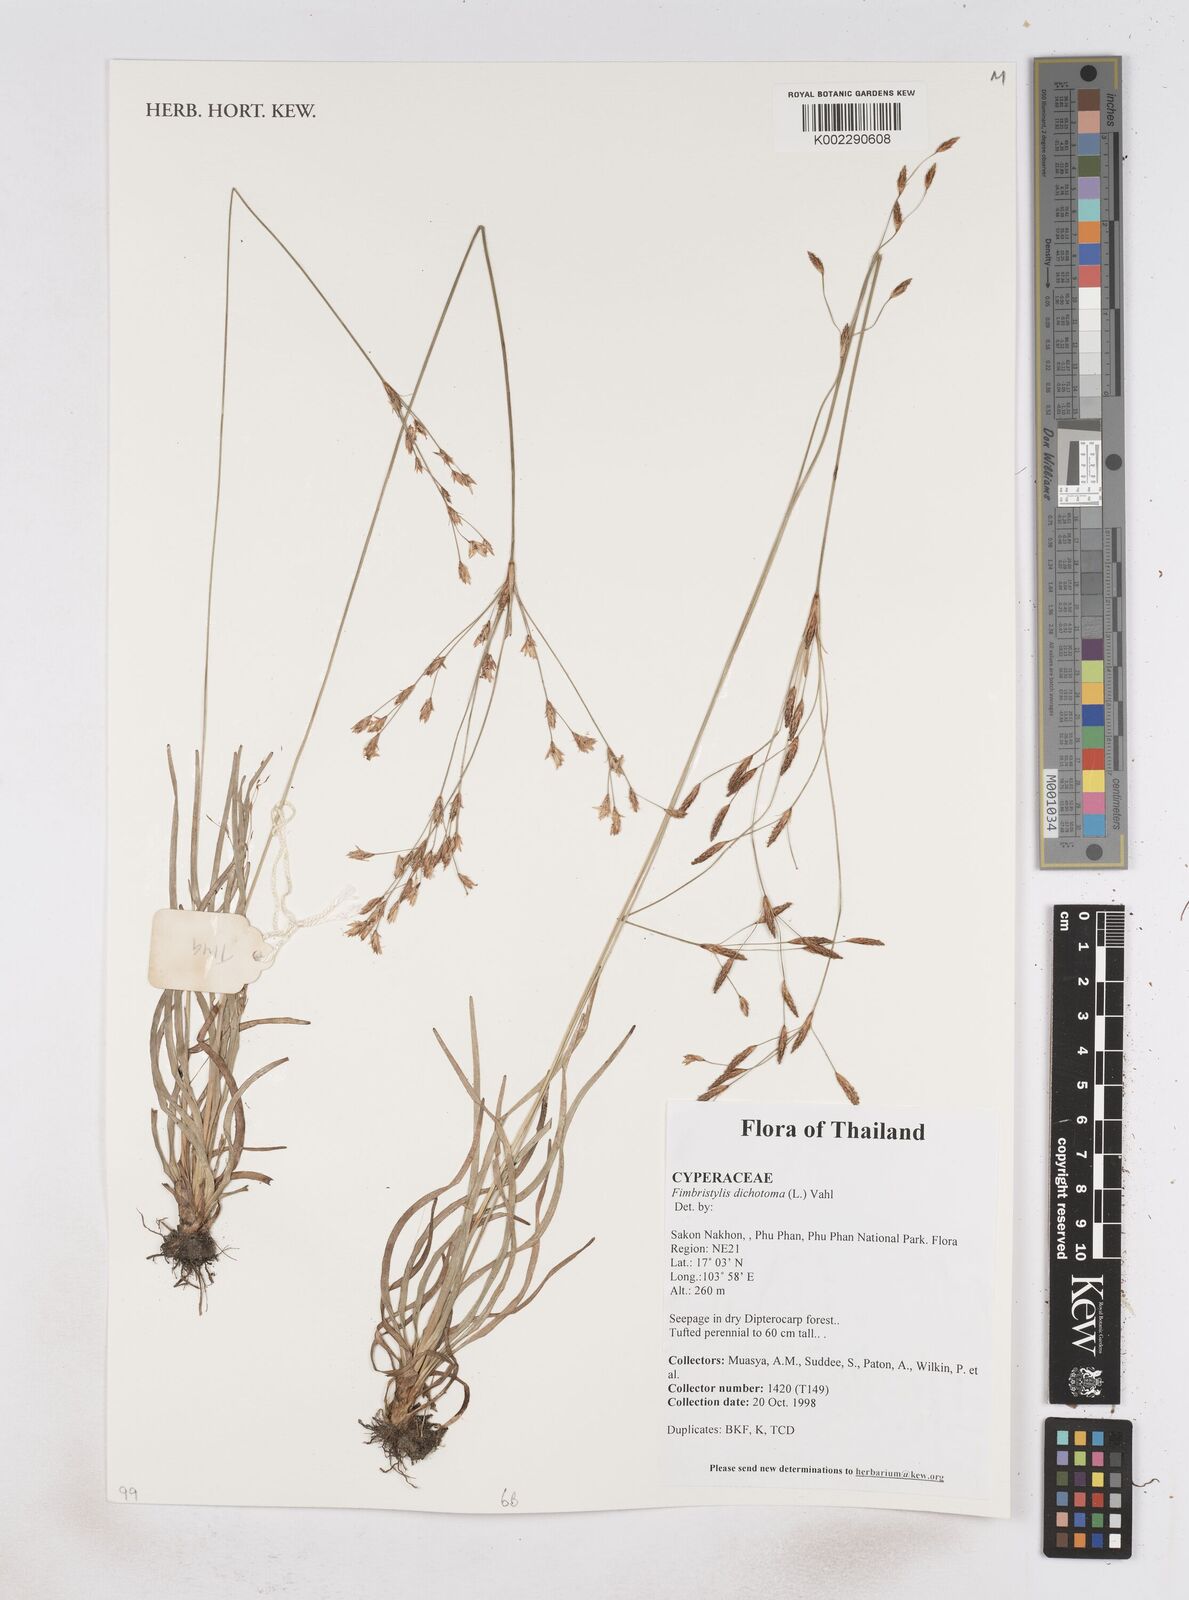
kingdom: Plantae
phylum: Tracheophyta
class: Liliopsida
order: Poales
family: Cyperaceae
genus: Fimbristylis
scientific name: Fimbristylis dichotoma
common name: Forked fimbry
